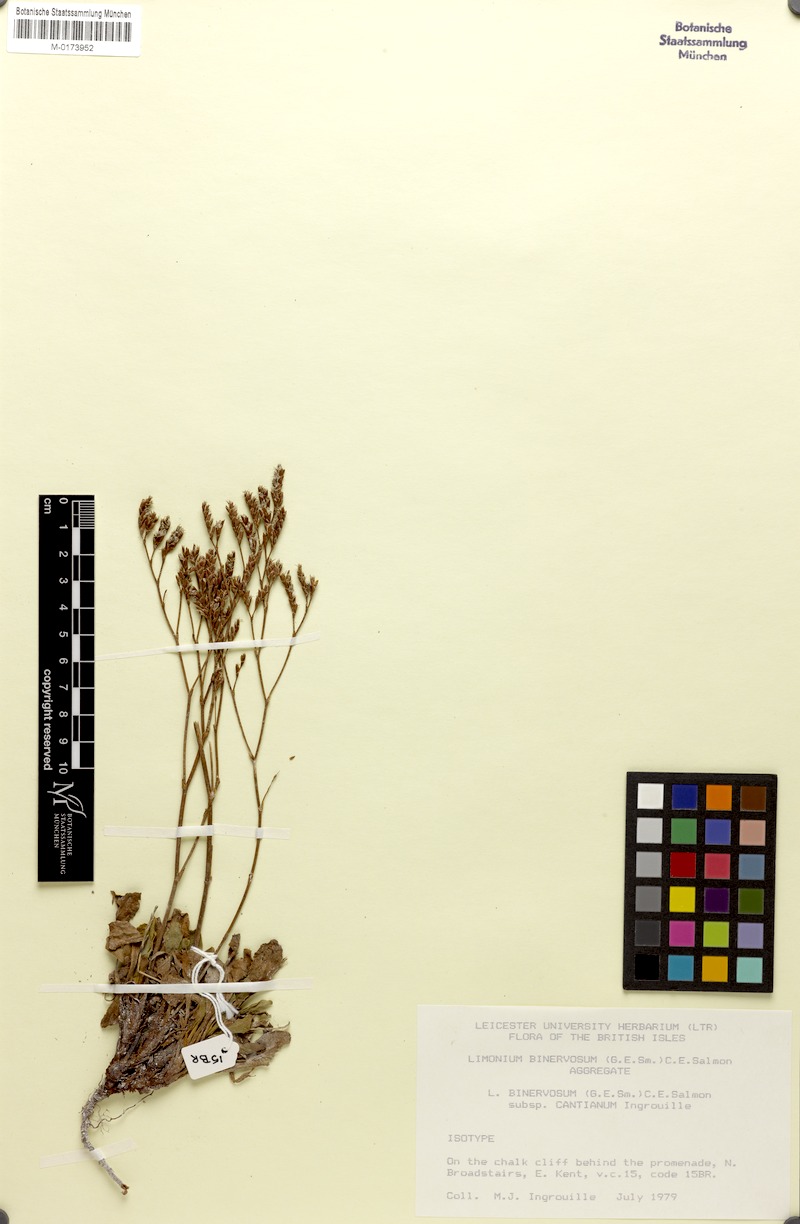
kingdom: Plantae
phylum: Tracheophyta
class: Magnoliopsida
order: Caryophyllales
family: Plumbaginaceae
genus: Limonium
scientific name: Limonium binervosum
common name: Rock sea-lavender
